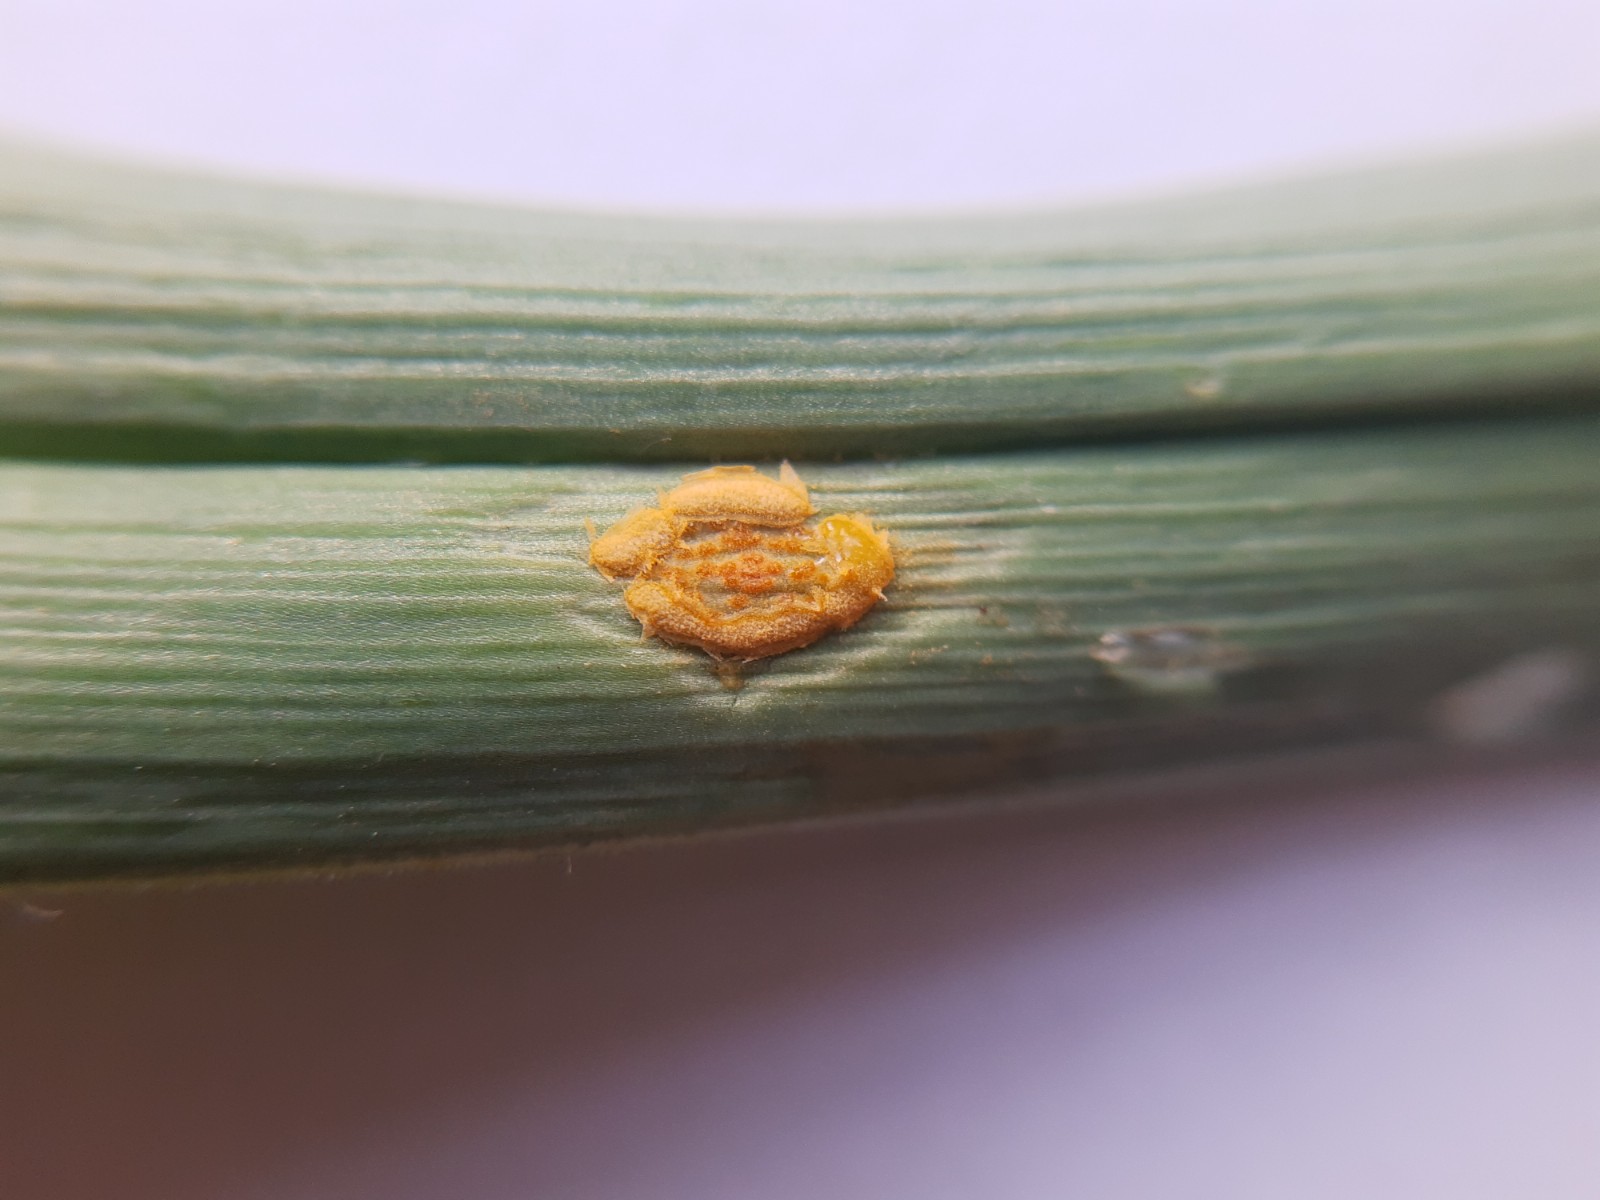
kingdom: Fungi
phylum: Basidiomycota
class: Pucciniomycetes
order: Pucciniales
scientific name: Pucciniales
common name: rustsvampeordenen
